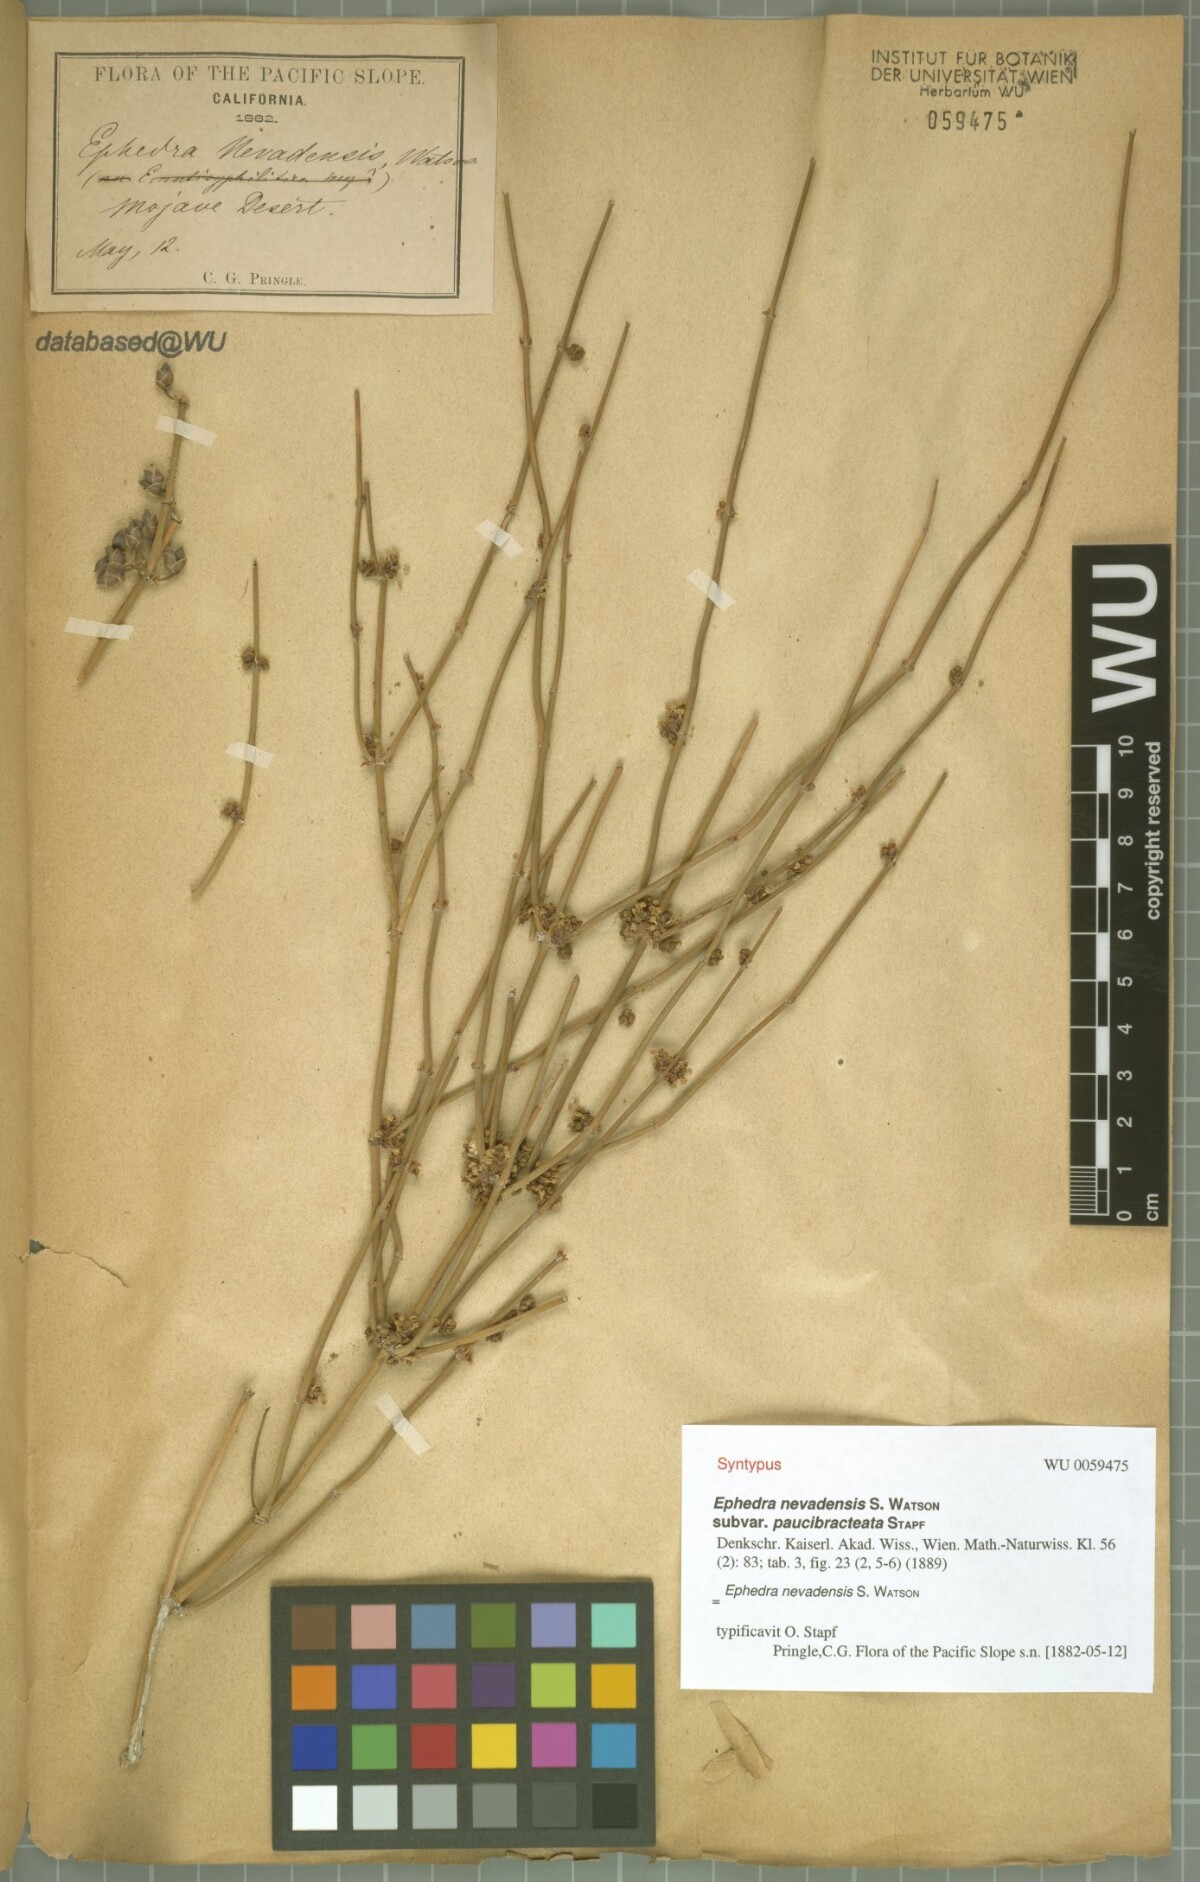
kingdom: Plantae
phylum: Tracheophyta
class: Gnetopsida
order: Ephedrales
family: Ephedraceae
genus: Ephedra
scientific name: Ephedra nevadensis
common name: Gray ephedra
